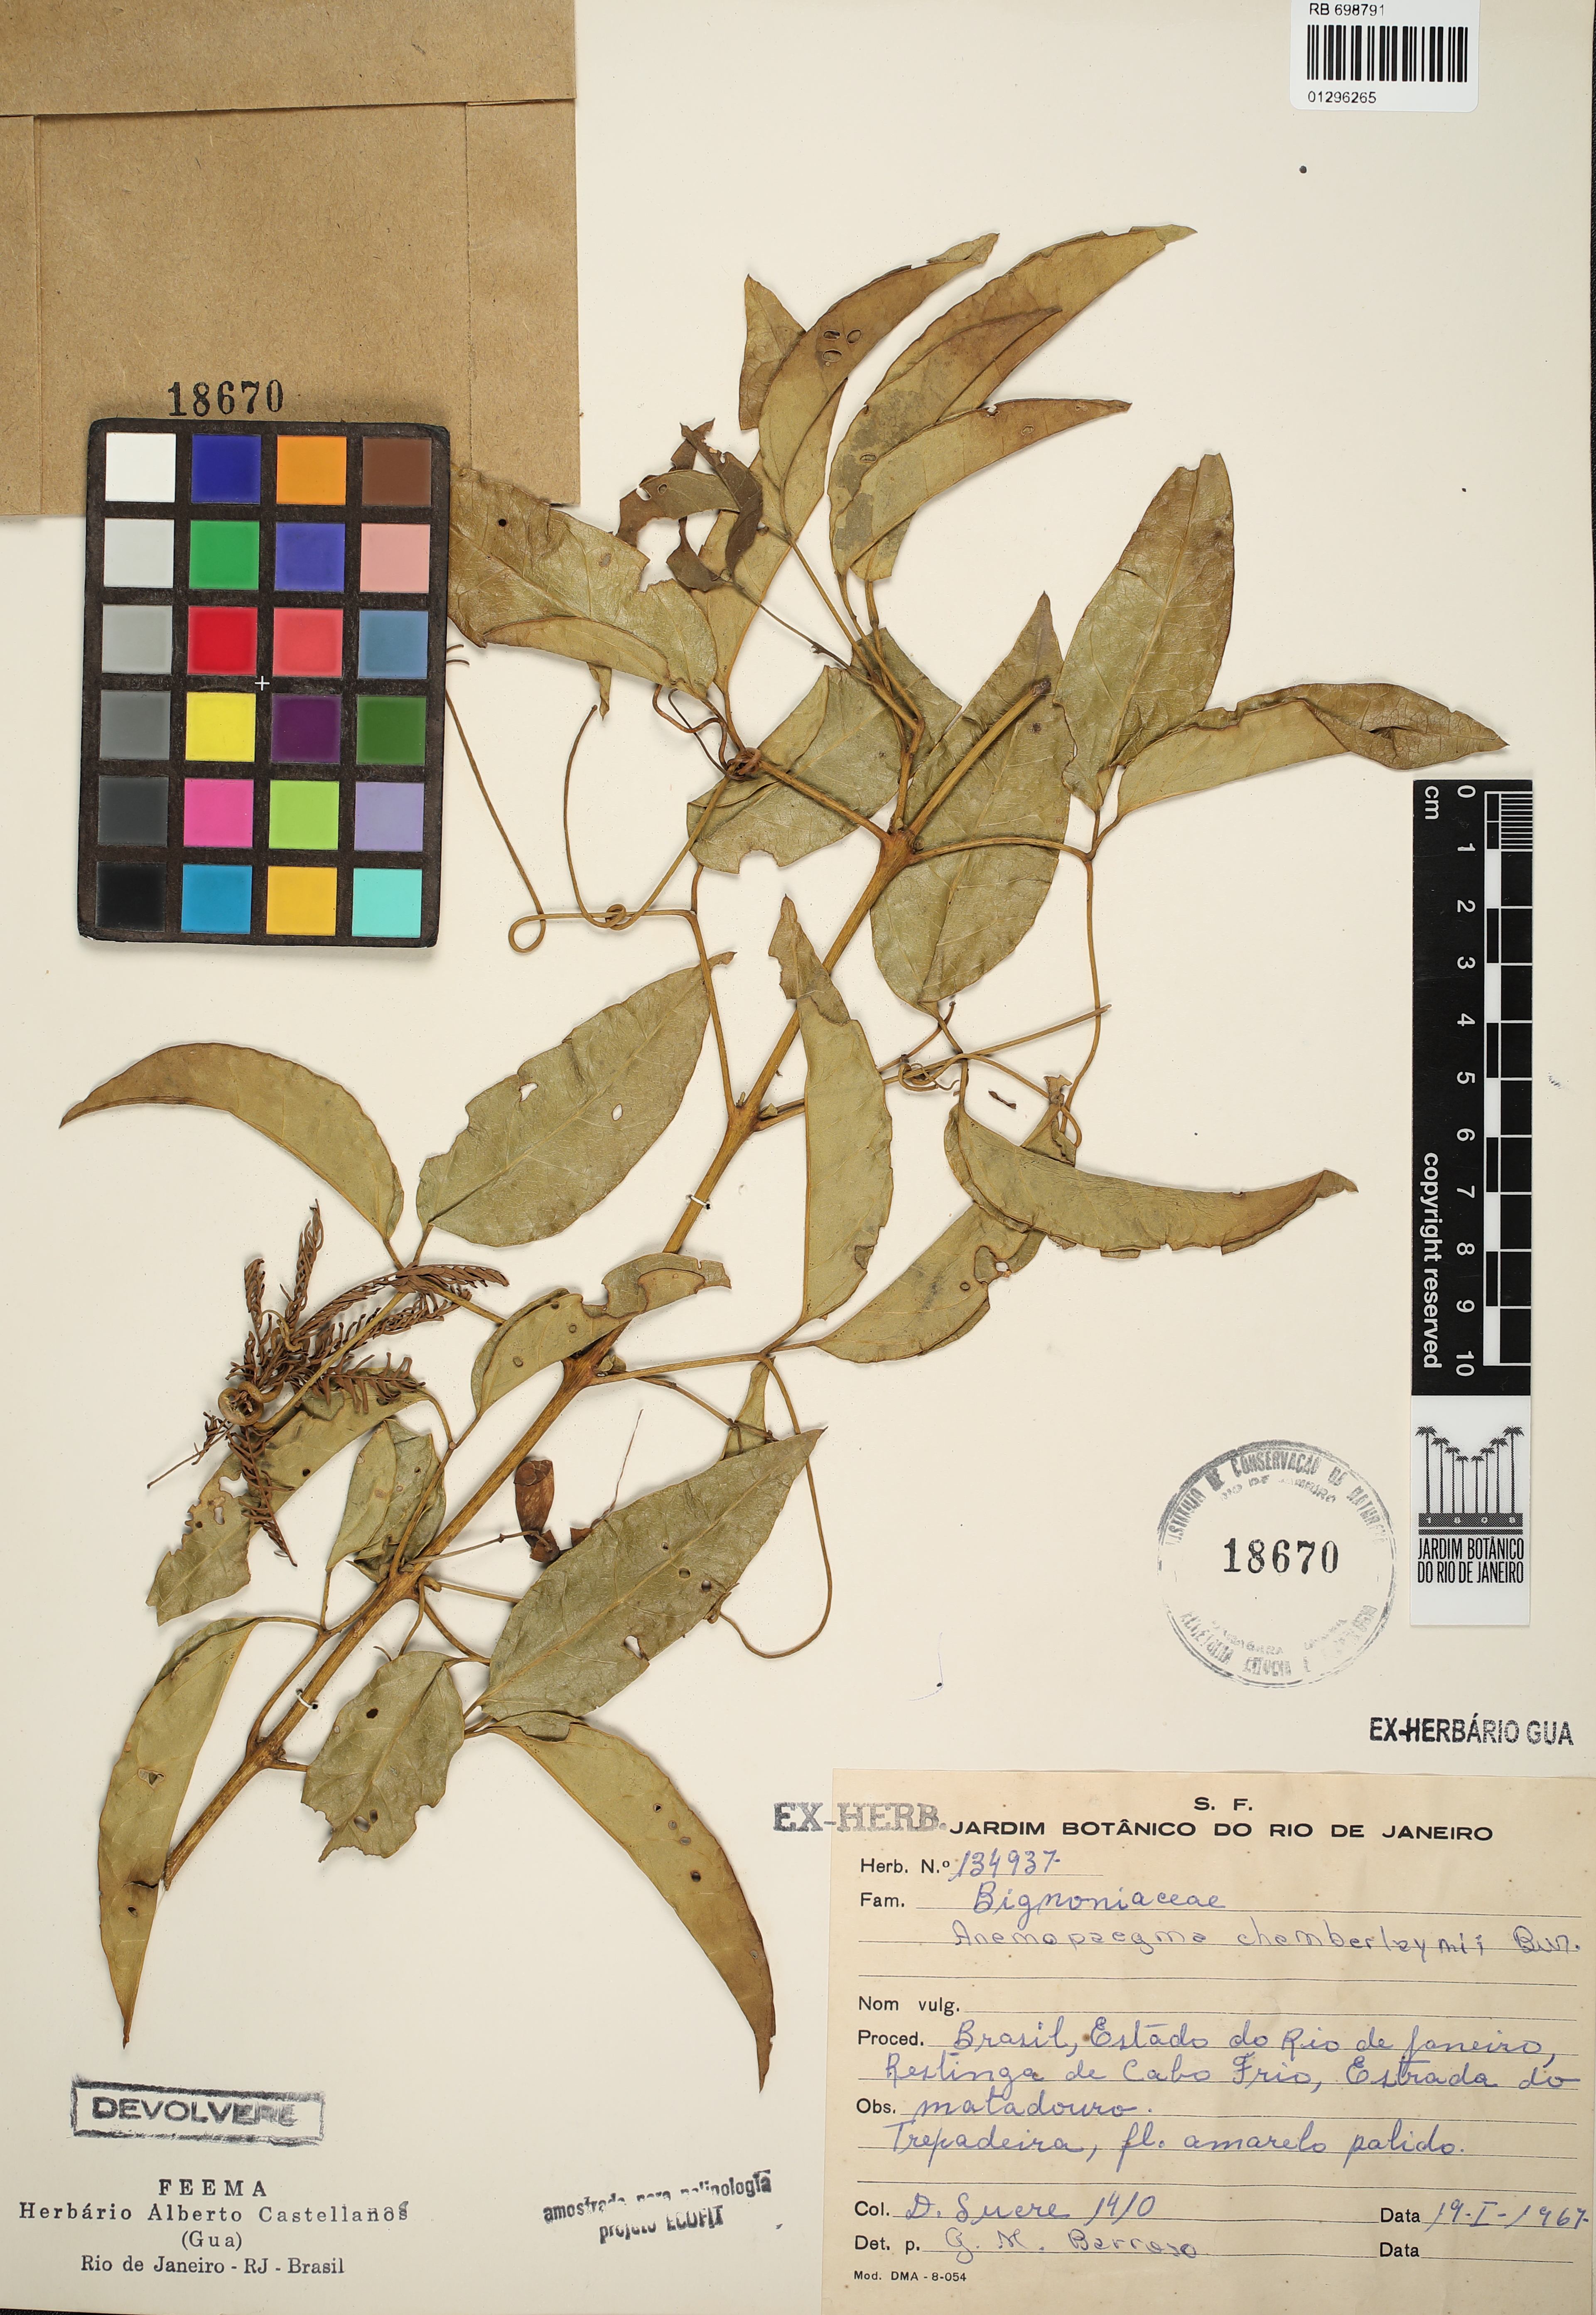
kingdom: Plantae
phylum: Tracheophyta
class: Magnoliopsida
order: Lamiales
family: Bignoniaceae
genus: Anemopaegma
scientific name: Anemopaegma chamberlaynii
